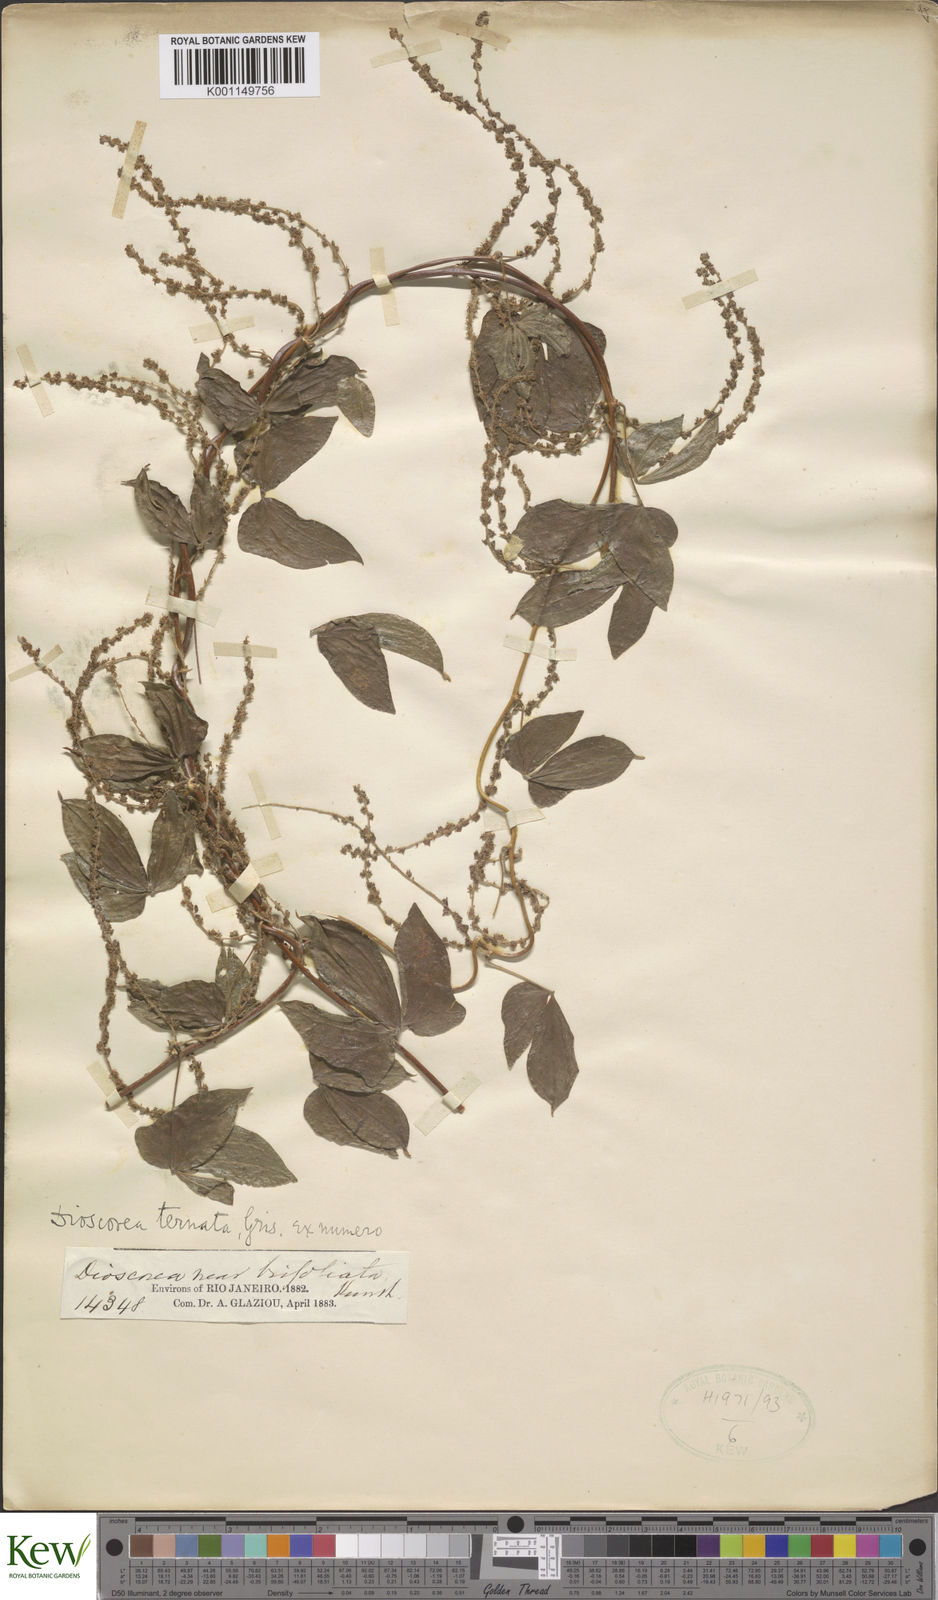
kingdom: Plantae
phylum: Tracheophyta
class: Liliopsida
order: Dioscoreales
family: Dioscoreaceae
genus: Dioscorea
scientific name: Dioscorea ternata
